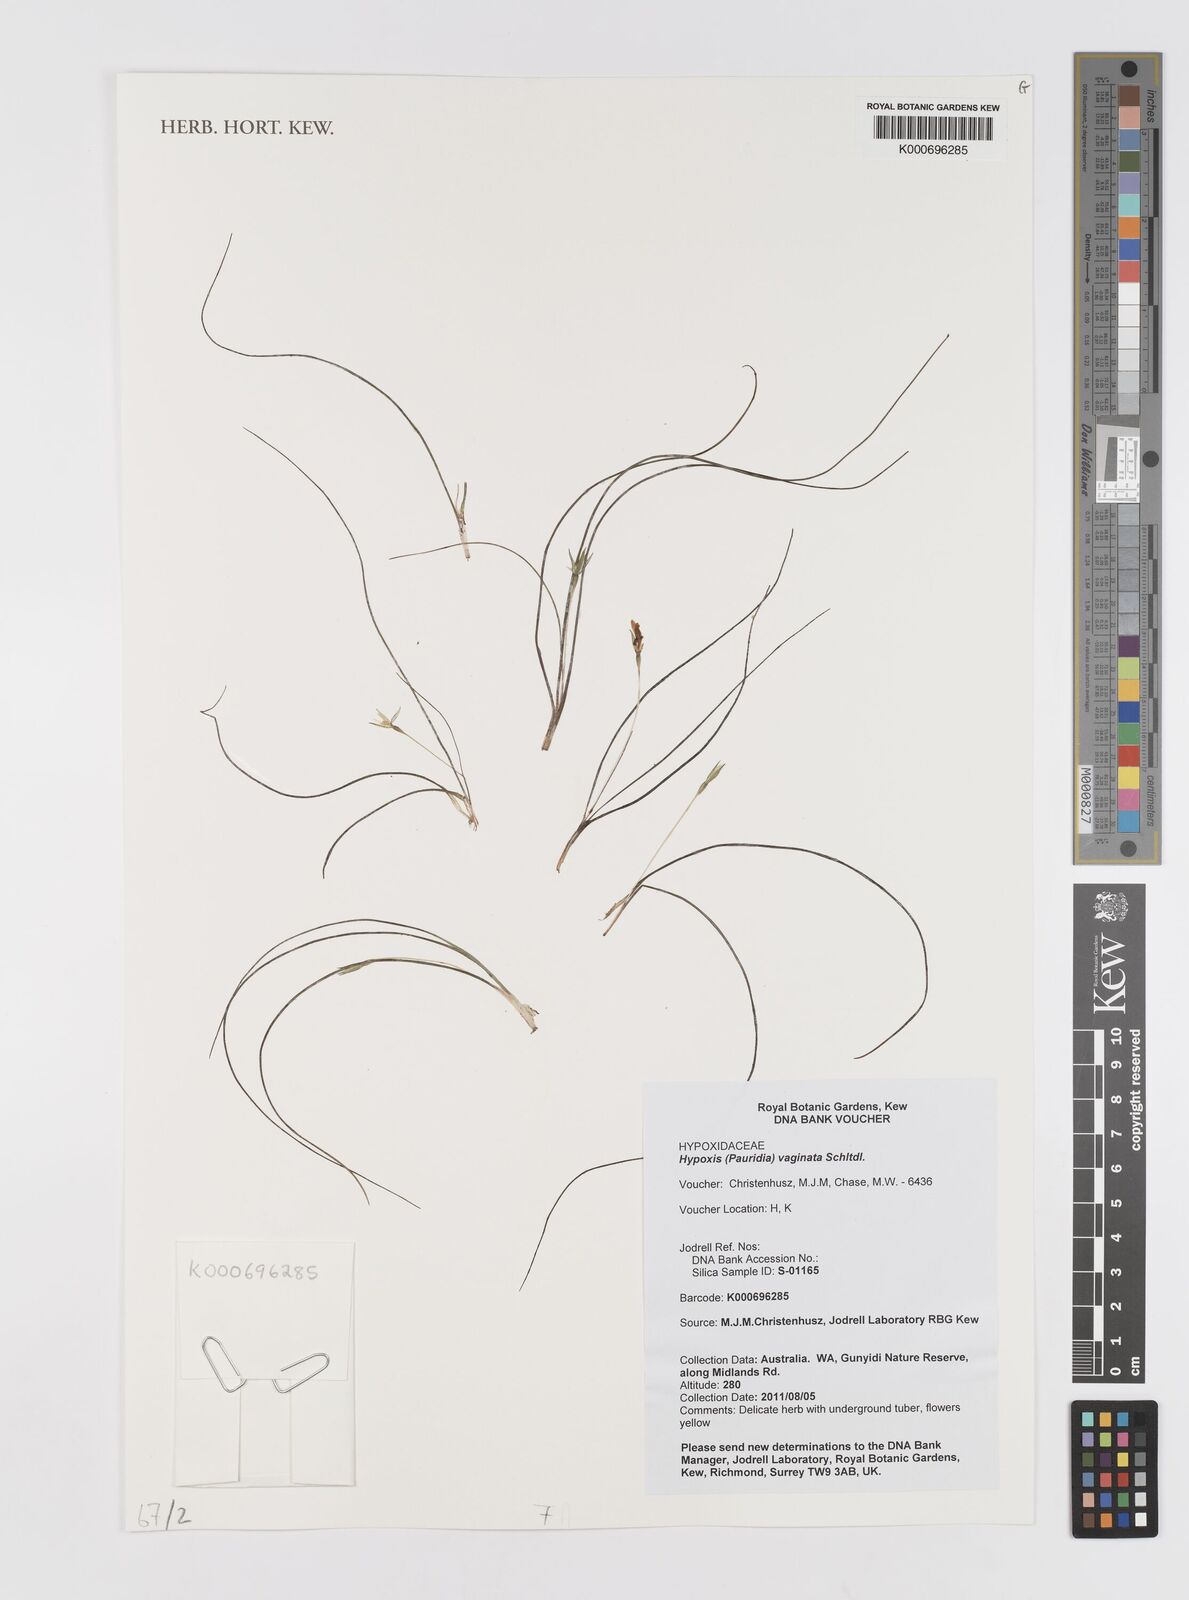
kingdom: Plantae
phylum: Tracheophyta
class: Liliopsida
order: Asparagales
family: Hypoxidaceae
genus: Pauridia
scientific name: Pauridia vaginata
